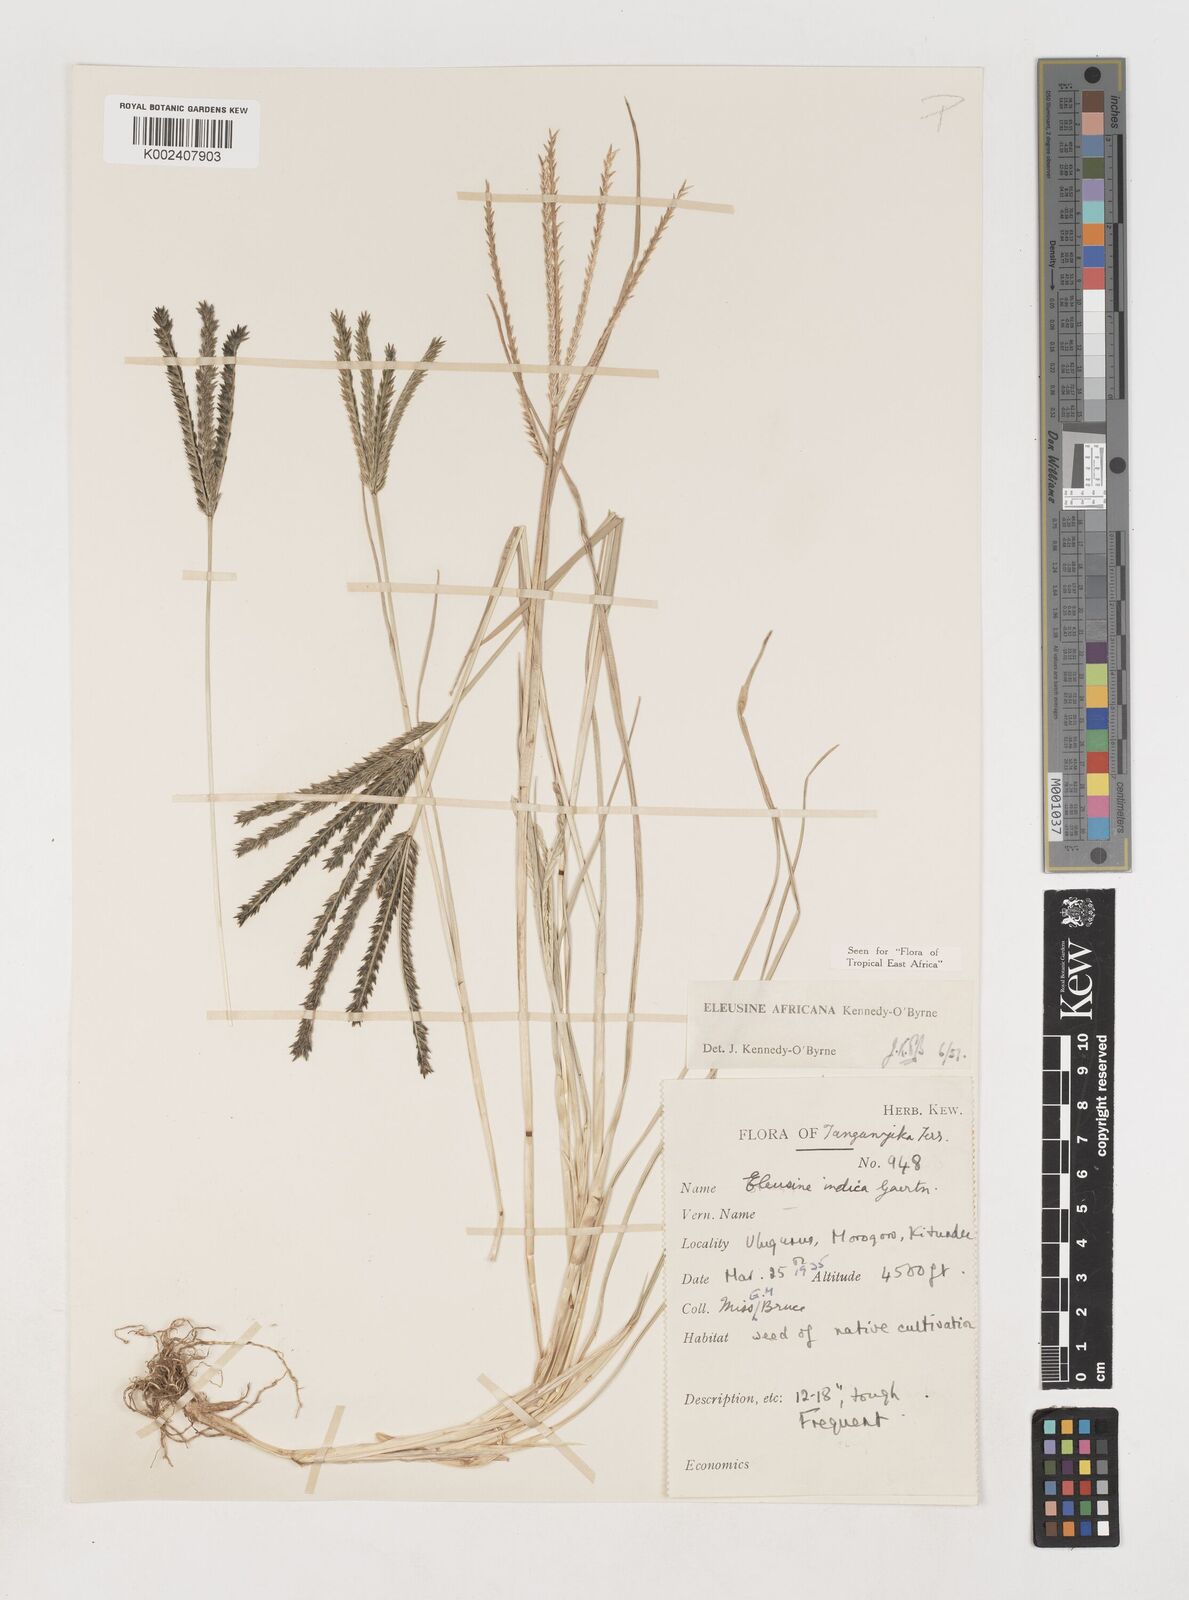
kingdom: Plantae
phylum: Tracheophyta
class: Liliopsida
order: Poales
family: Poaceae
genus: Eleusine
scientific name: Eleusine africana
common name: Wild african finger millet
